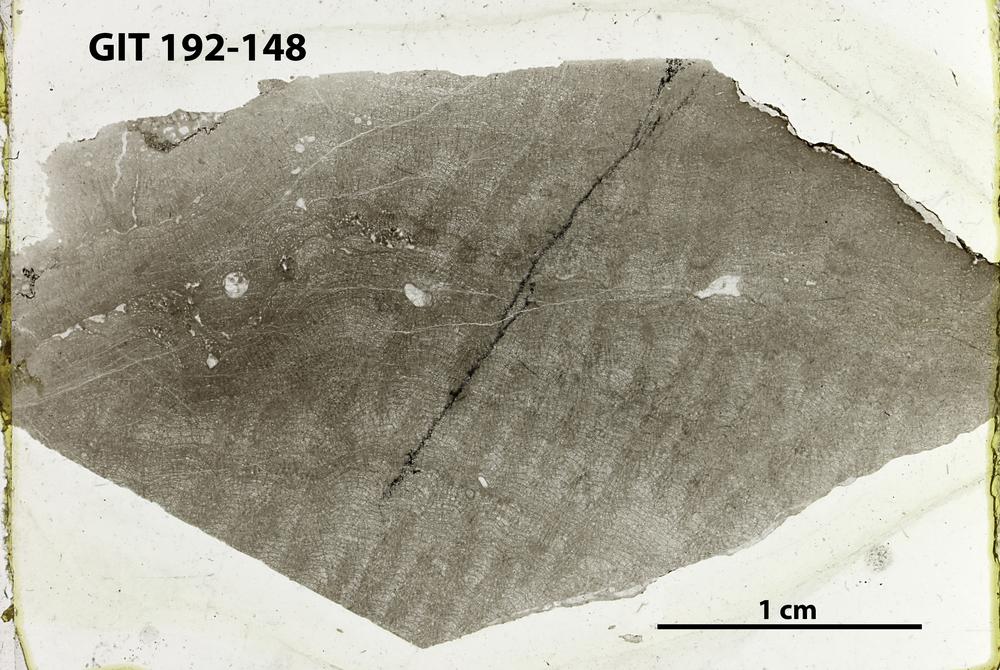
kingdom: Animalia
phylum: Porifera
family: Pseudolabechiidae
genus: Pseudolabechia
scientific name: Pseudolabechia
